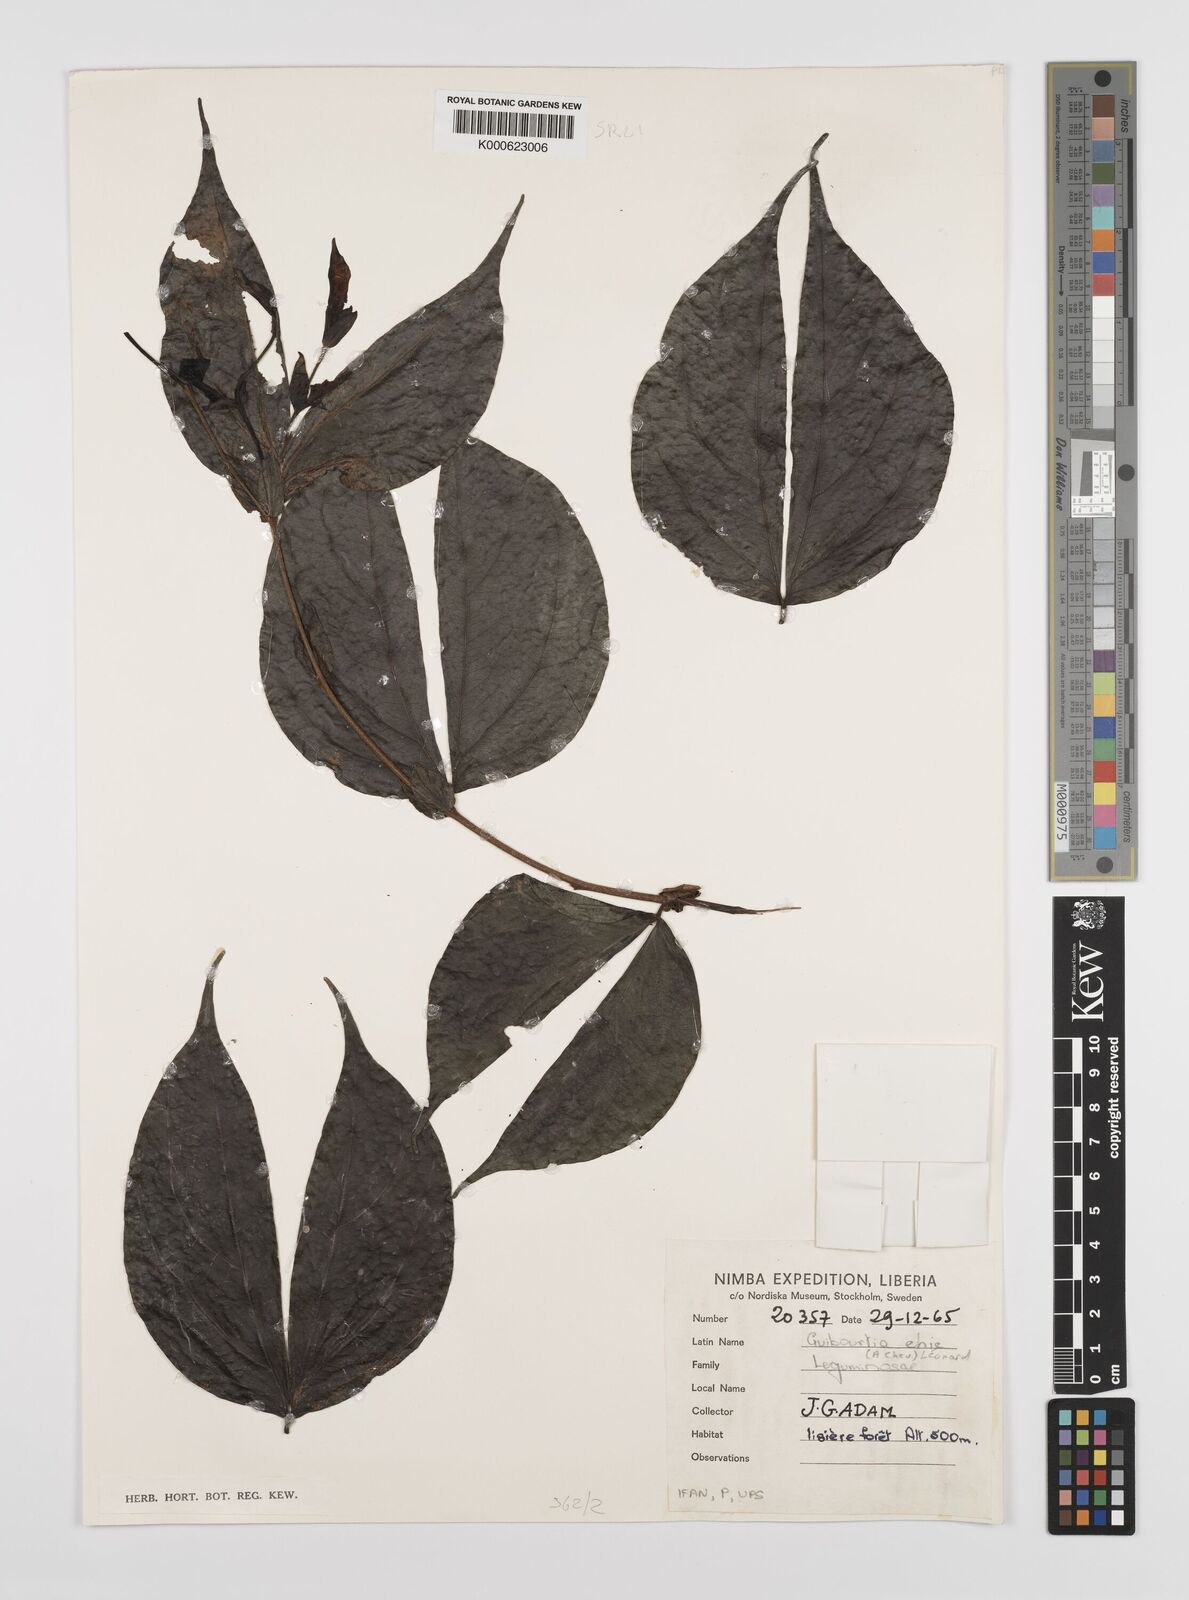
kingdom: Plantae
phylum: Tracheophyta
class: Magnoliopsida
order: Fabales
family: Fabaceae
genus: Guibourtia
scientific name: Guibourtia ehie
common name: Black hyedua
